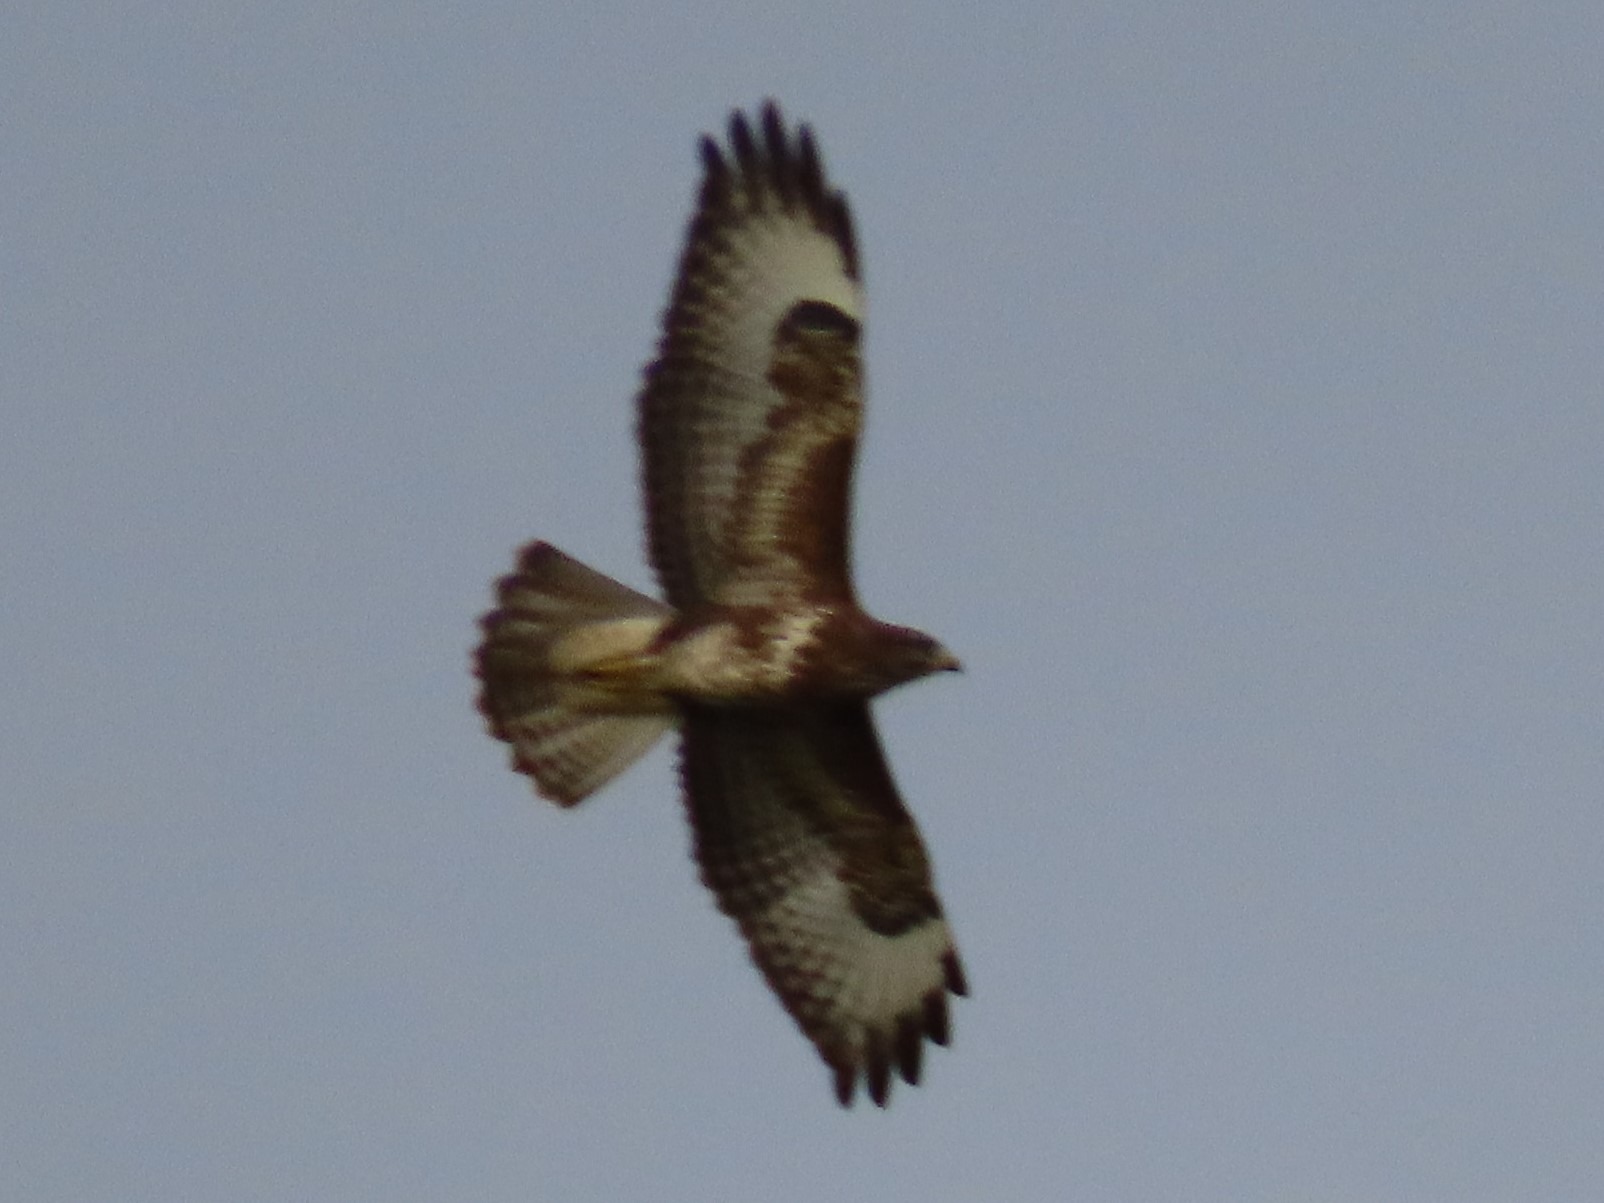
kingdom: Animalia
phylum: Chordata
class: Aves
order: Accipitriformes
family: Accipitridae
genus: Buteo
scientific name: Buteo buteo
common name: Musvåge
